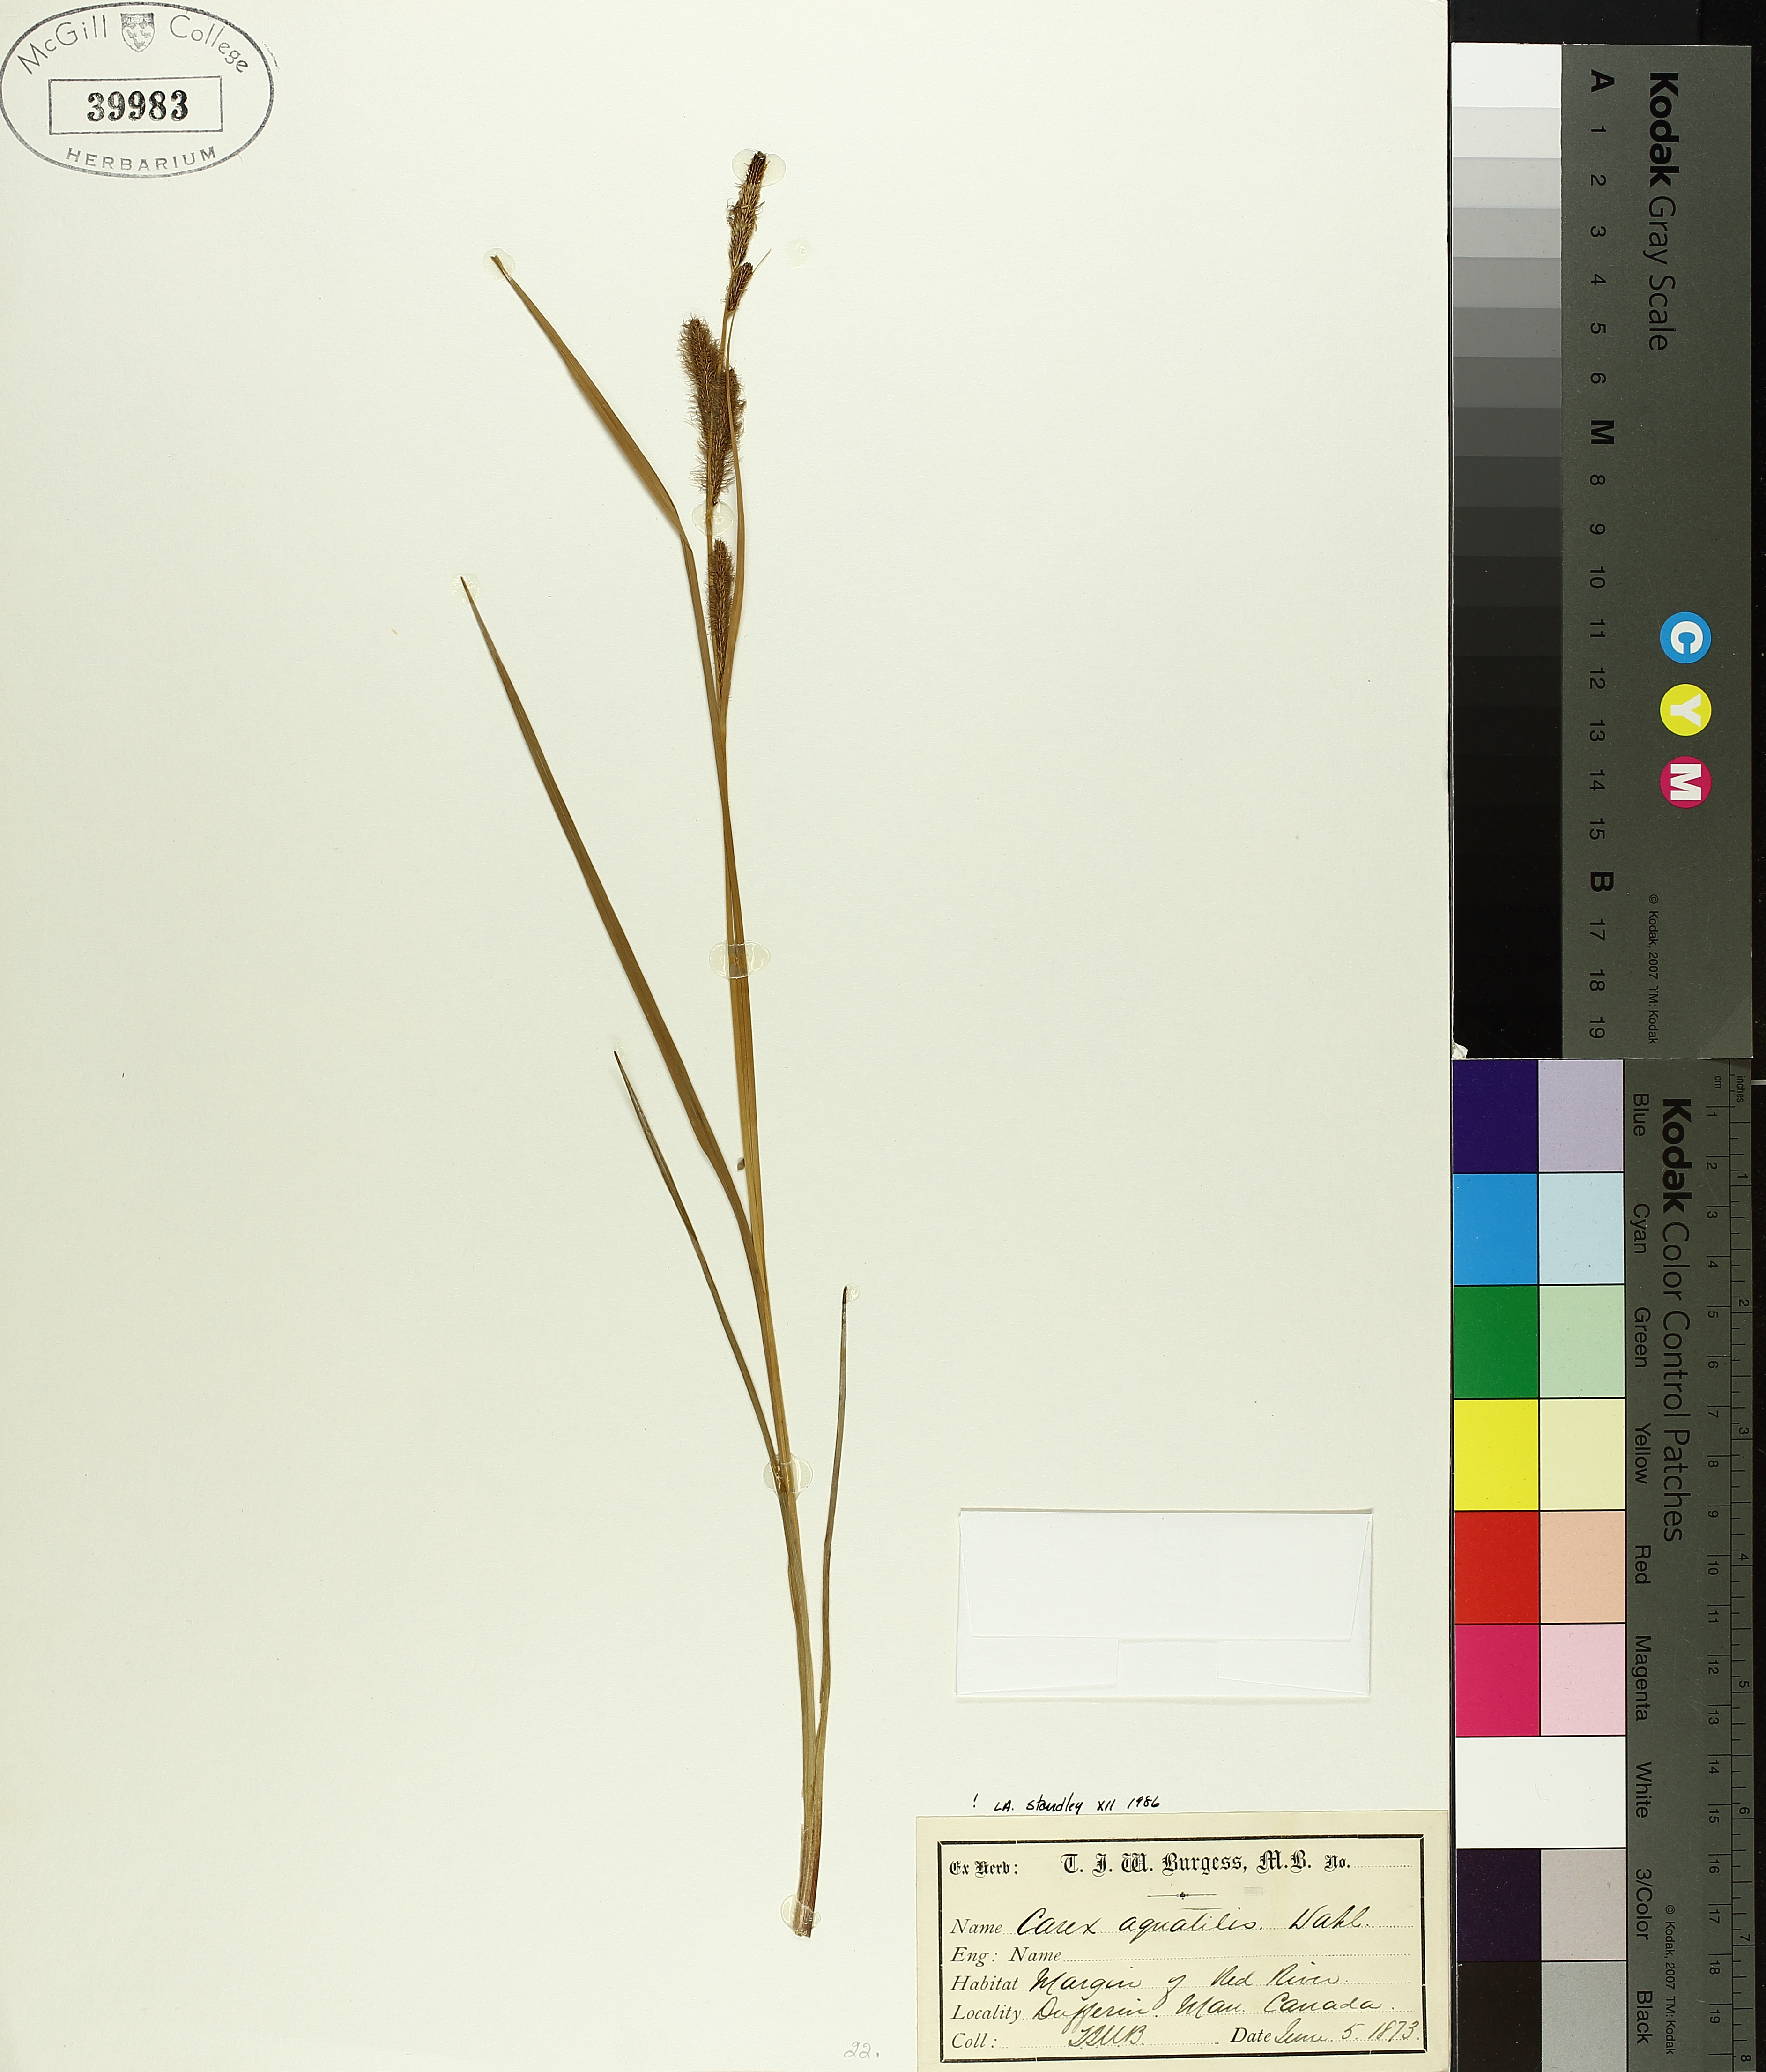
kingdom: Plantae
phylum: Tracheophyta
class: Liliopsida
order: Poales
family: Cyperaceae
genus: Carex
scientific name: Carex aquatilis
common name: Water sedge
